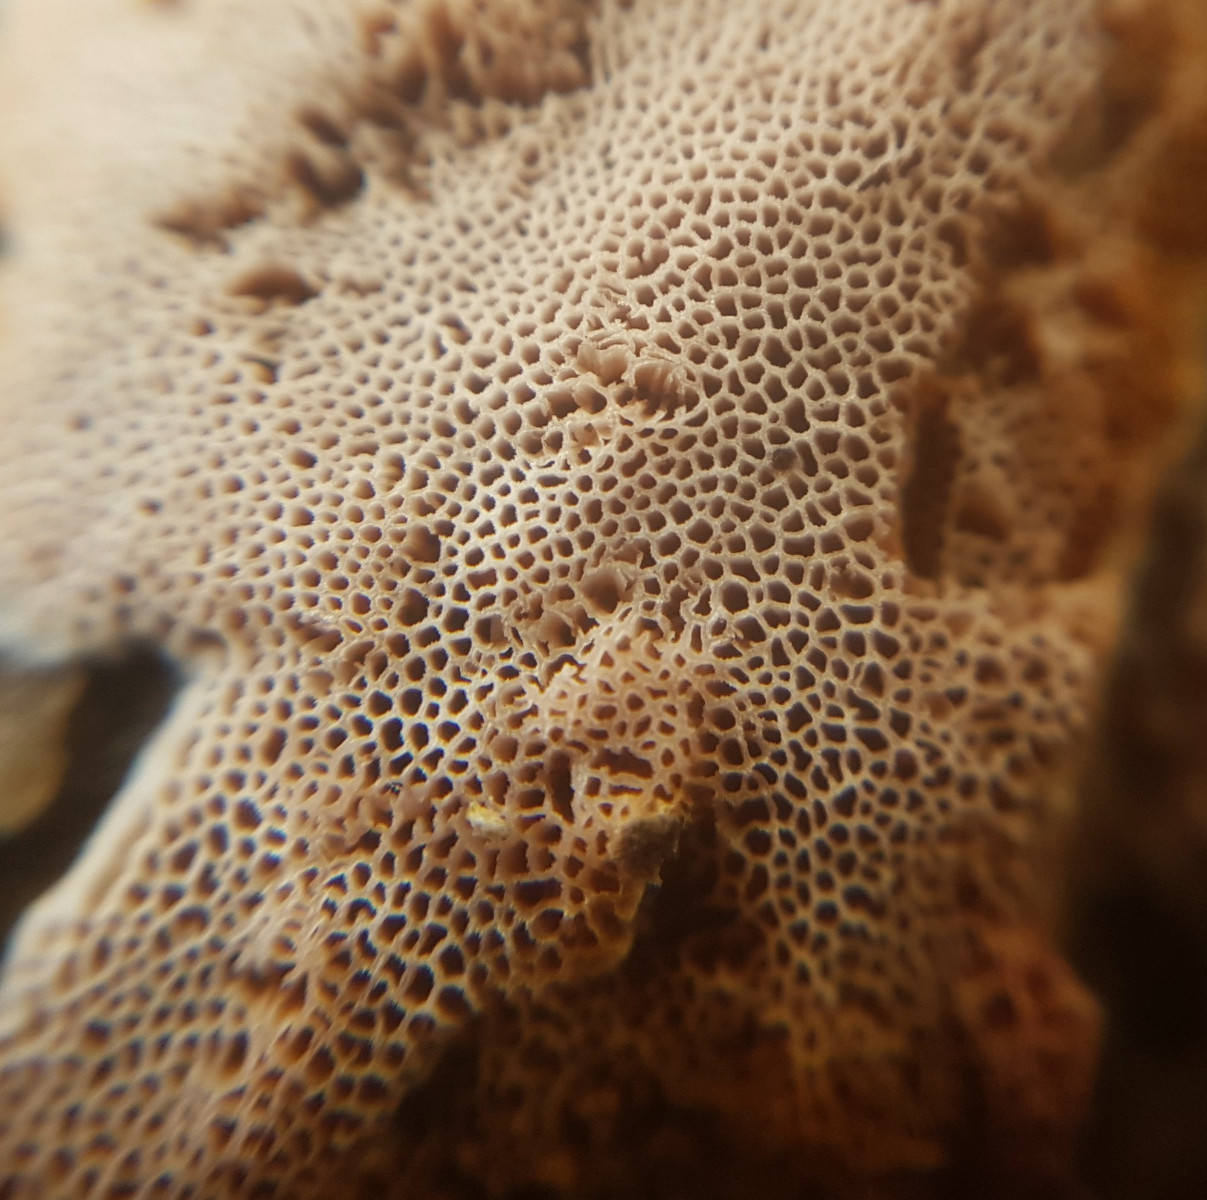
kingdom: Fungi
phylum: Basidiomycota
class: Agaricomycetes
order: Polyporales
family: Irpicaceae
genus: Ceriporia
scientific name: Ceriporia purpurea
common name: purpur-voksporesvamp
